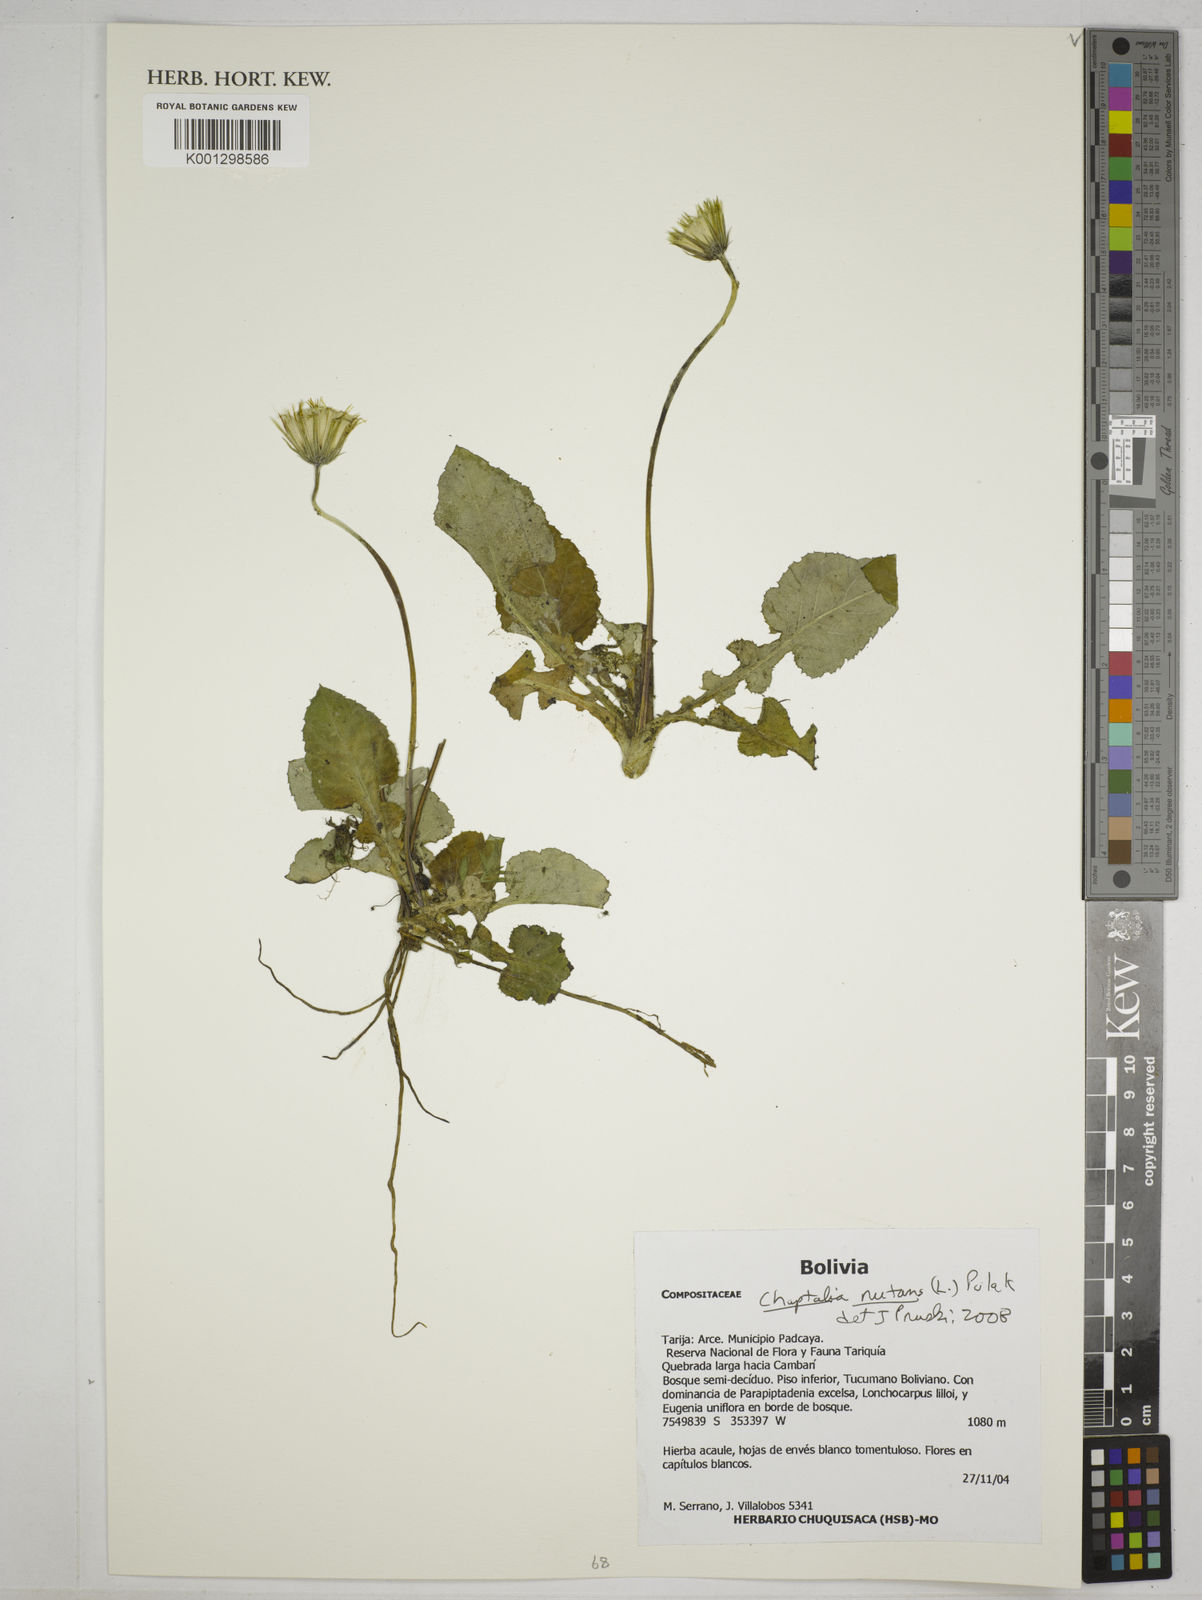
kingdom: Plantae
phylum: Tracheophyta
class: Magnoliopsida
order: Asterales
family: Asteraceae
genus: Chaptalia
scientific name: Chaptalia nutans
